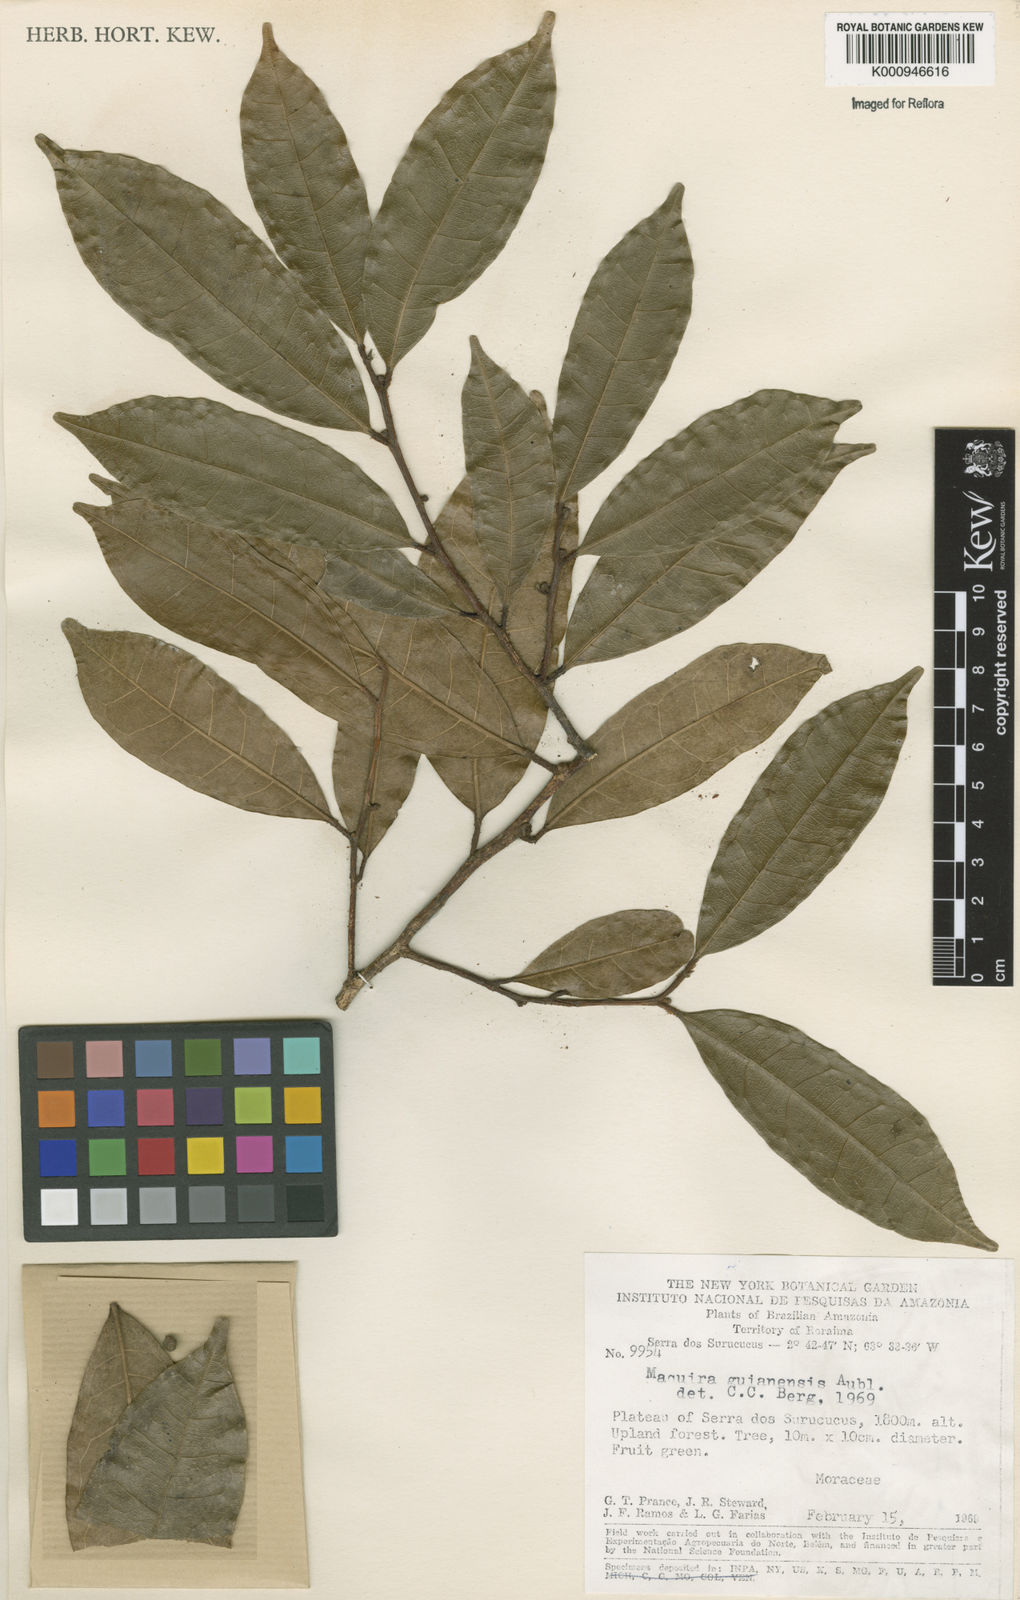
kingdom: Plantae
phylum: Tracheophyta
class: Magnoliopsida
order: Rosales
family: Moraceae
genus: Maquira
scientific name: Maquira guianensis
